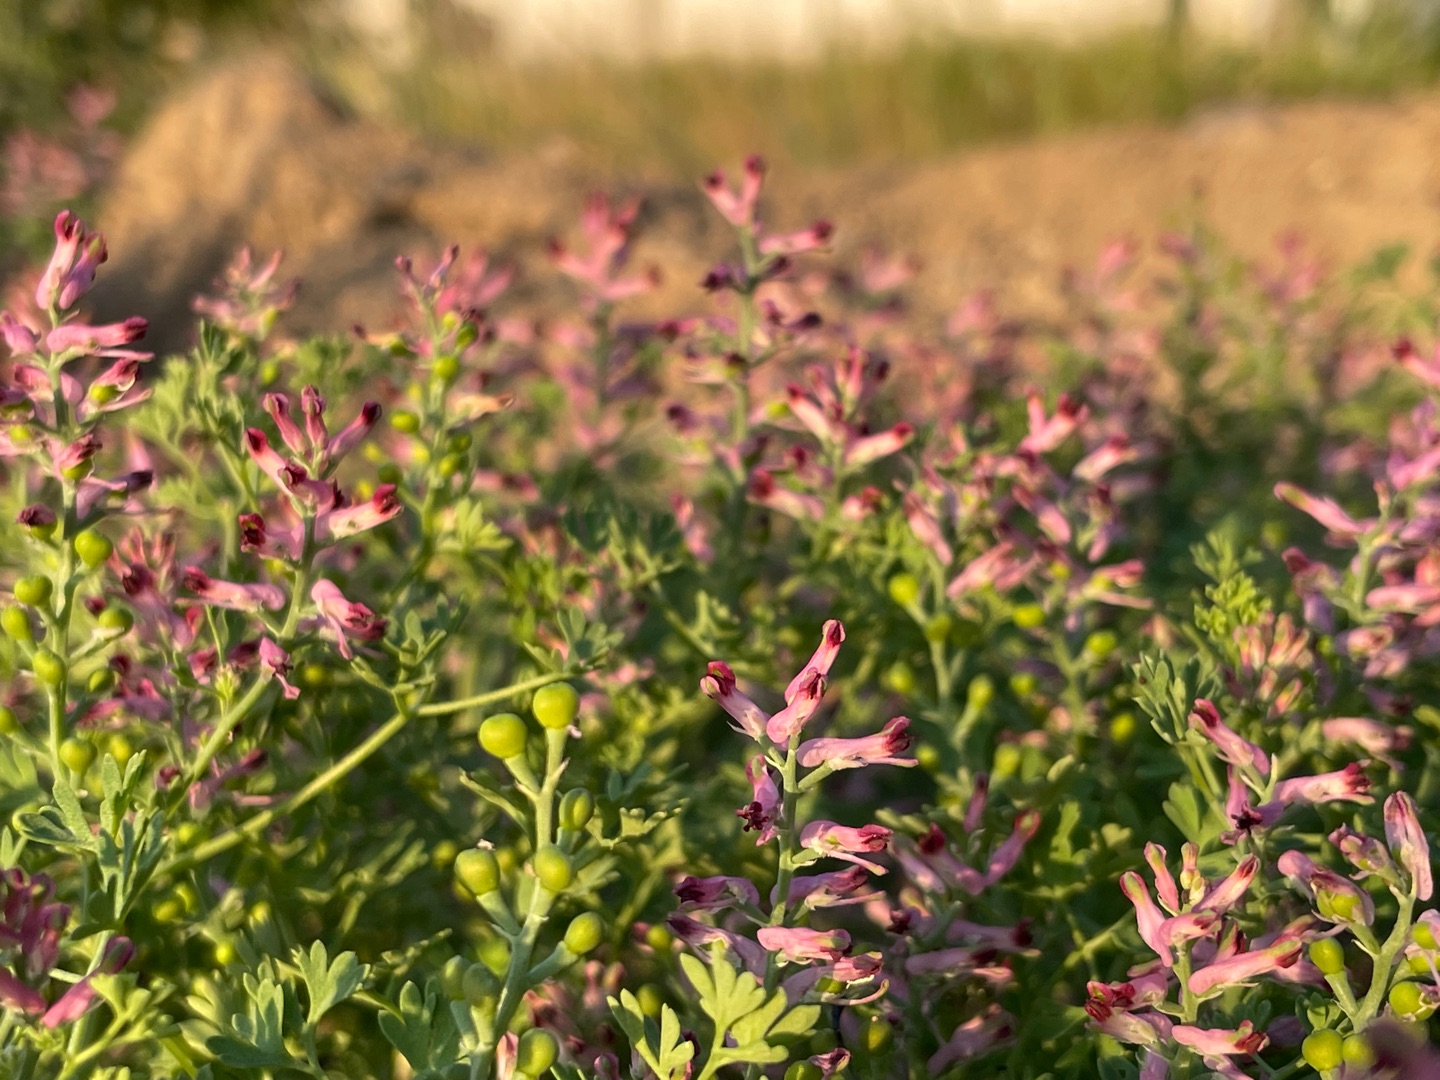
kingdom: Plantae
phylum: Tracheophyta
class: Magnoliopsida
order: Ranunculales
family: Papaveraceae
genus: Fumaria
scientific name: Fumaria officinalis
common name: Læge-jordrøg
